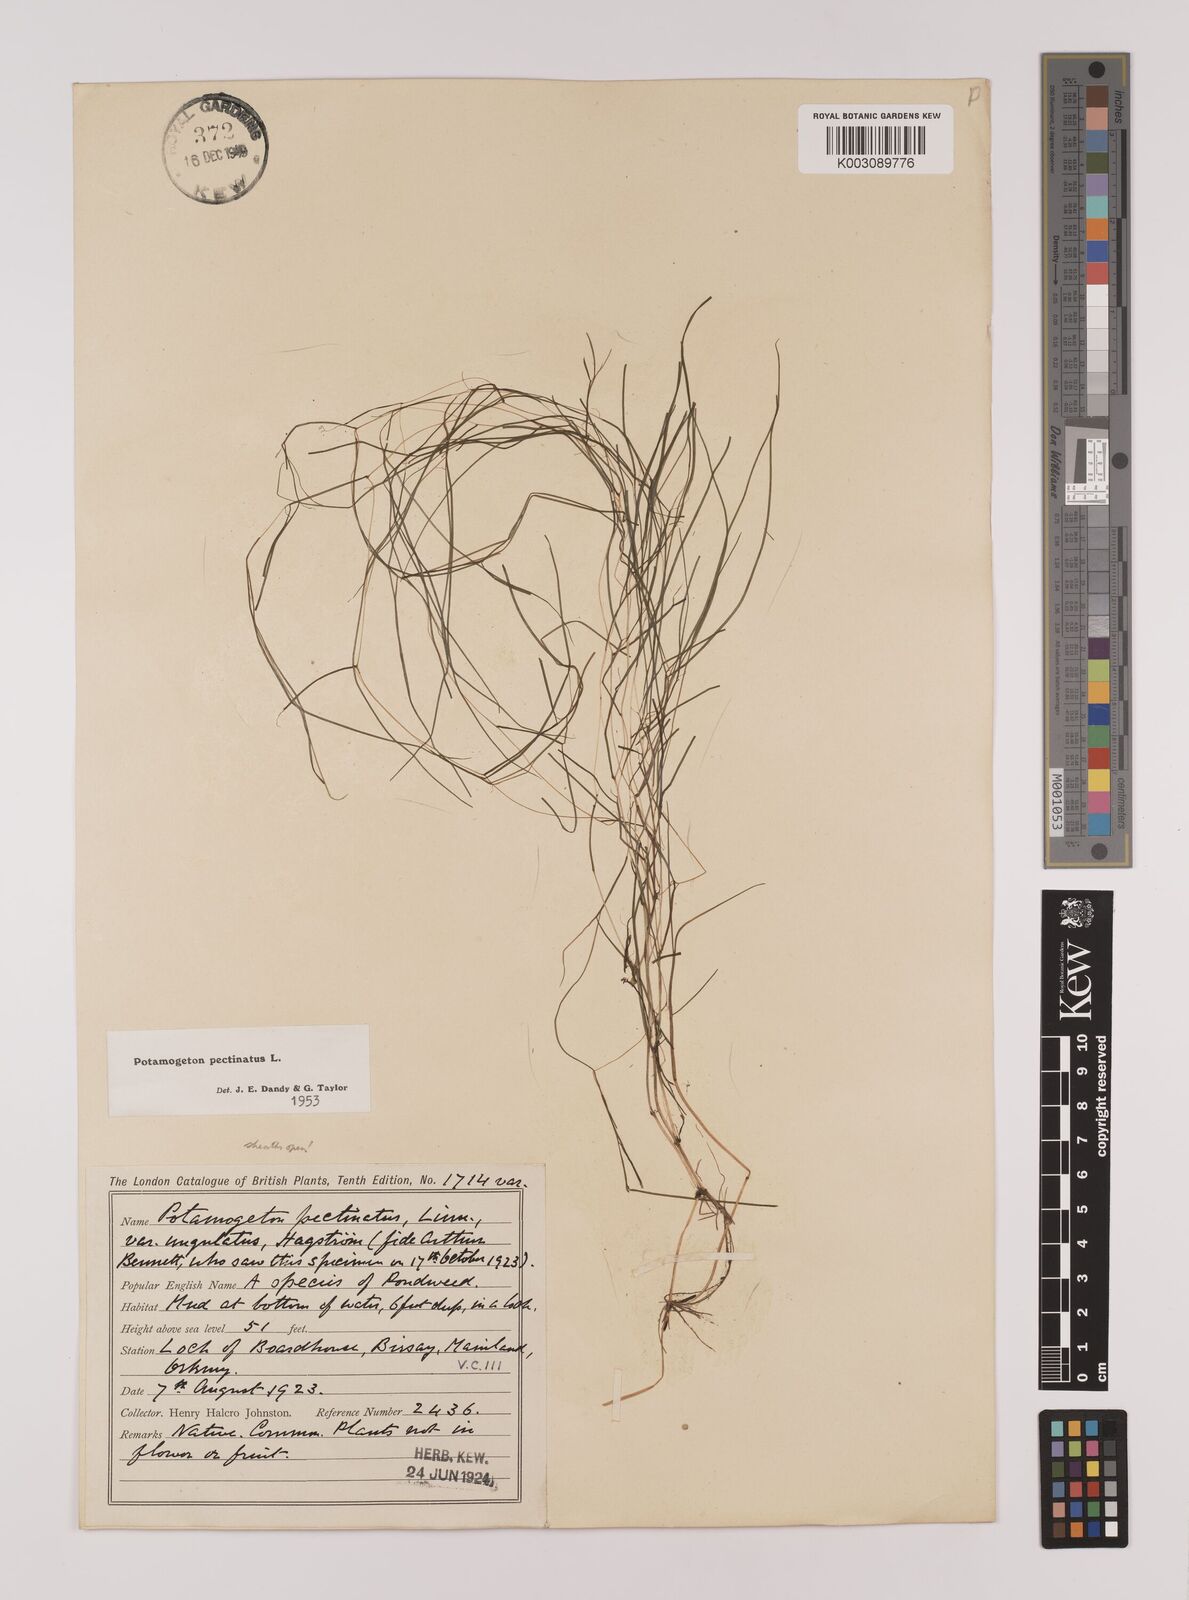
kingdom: Plantae
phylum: Tracheophyta
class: Liliopsida
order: Alismatales
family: Potamogetonaceae
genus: Stuckenia
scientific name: Stuckenia pectinata
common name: Sago pondweed
